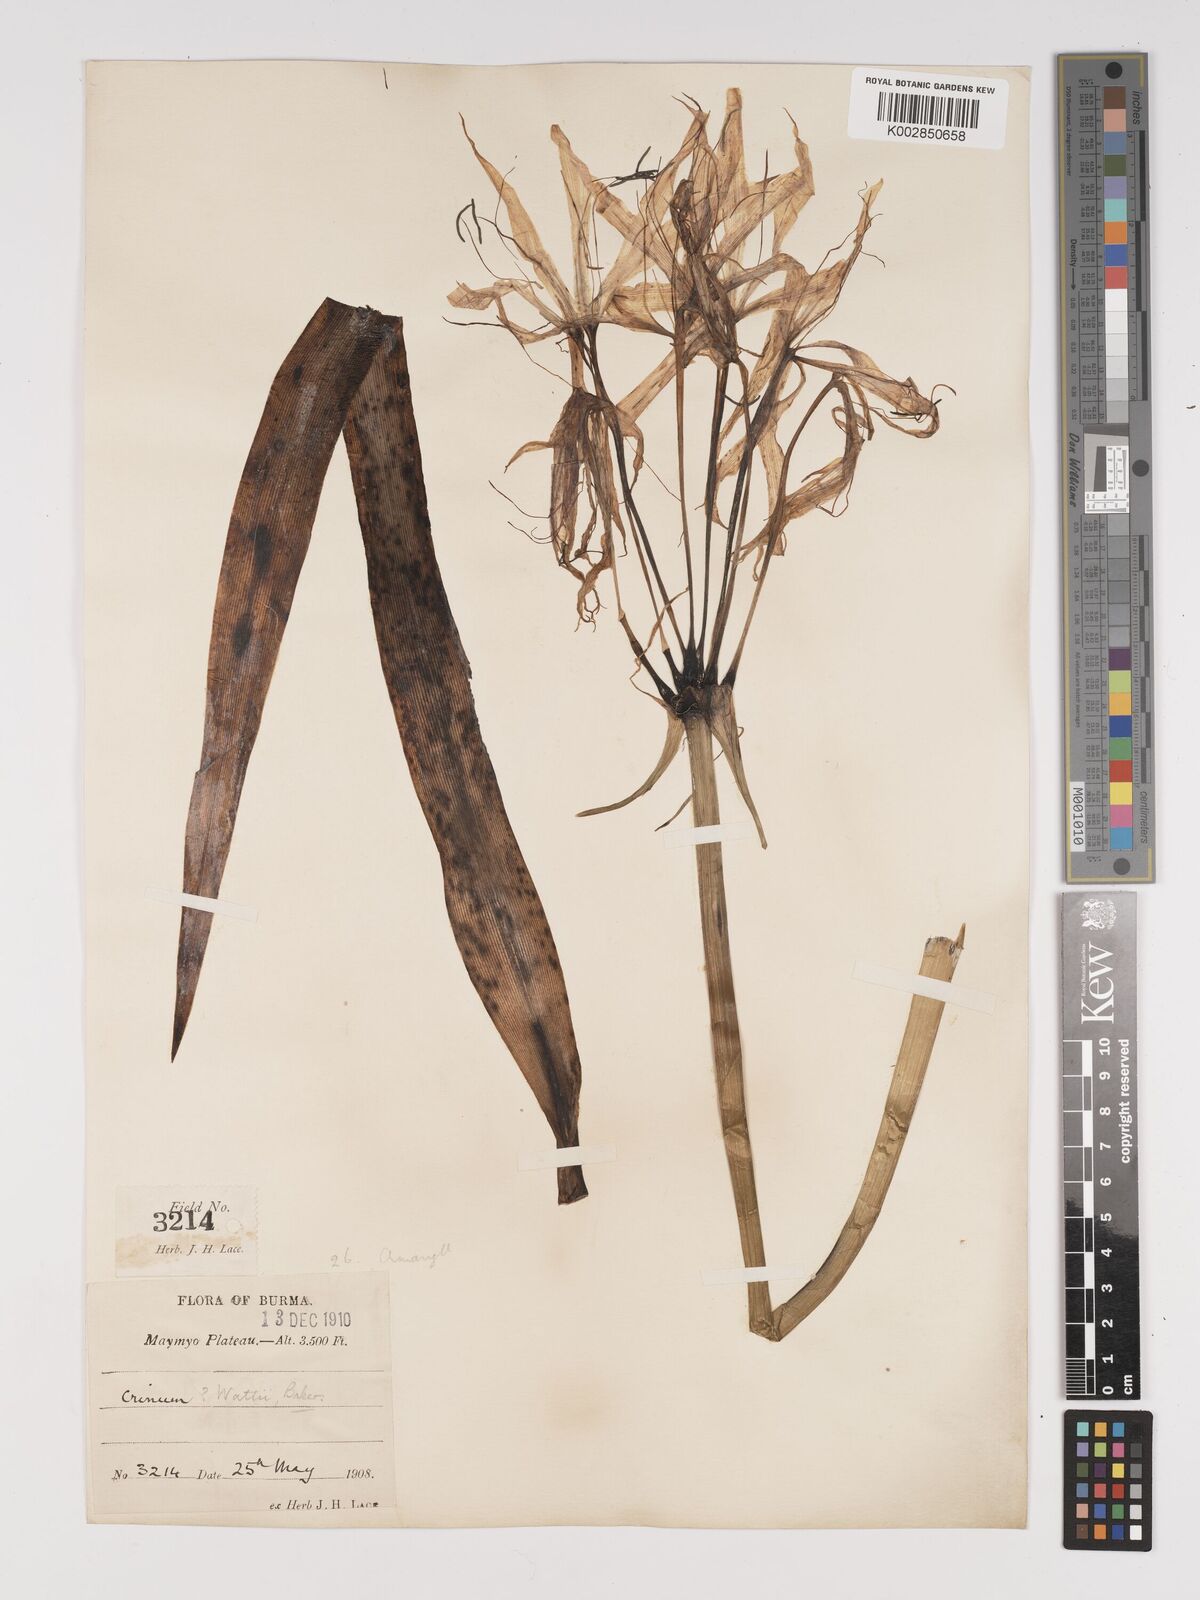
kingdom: Plantae
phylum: Tracheophyta
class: Liliopsida
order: Asparagales
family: Amaryllidaceae
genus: Crinum
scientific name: Crinum wattii
